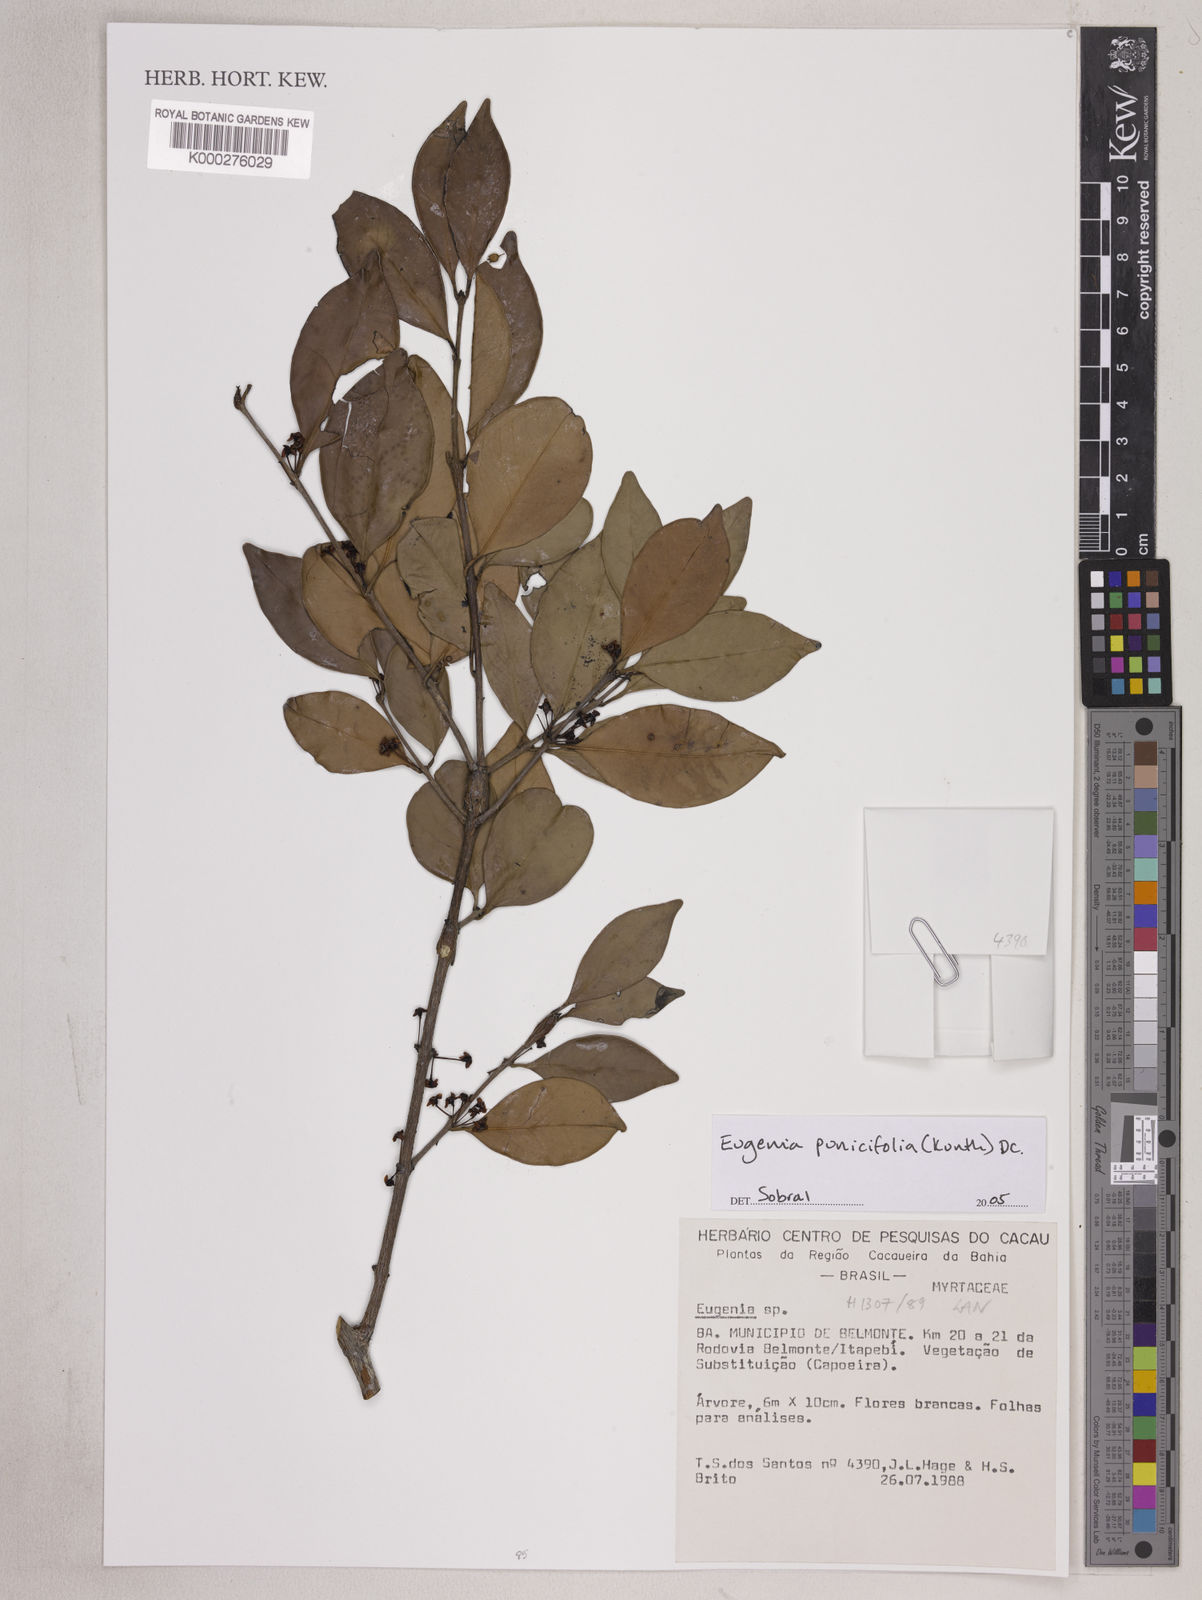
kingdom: Plantae
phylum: Tracheophyta
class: Magnoliopsida
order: Myrtales
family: Myrtaceae
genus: Eugenia
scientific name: Eugenia punicifolia
